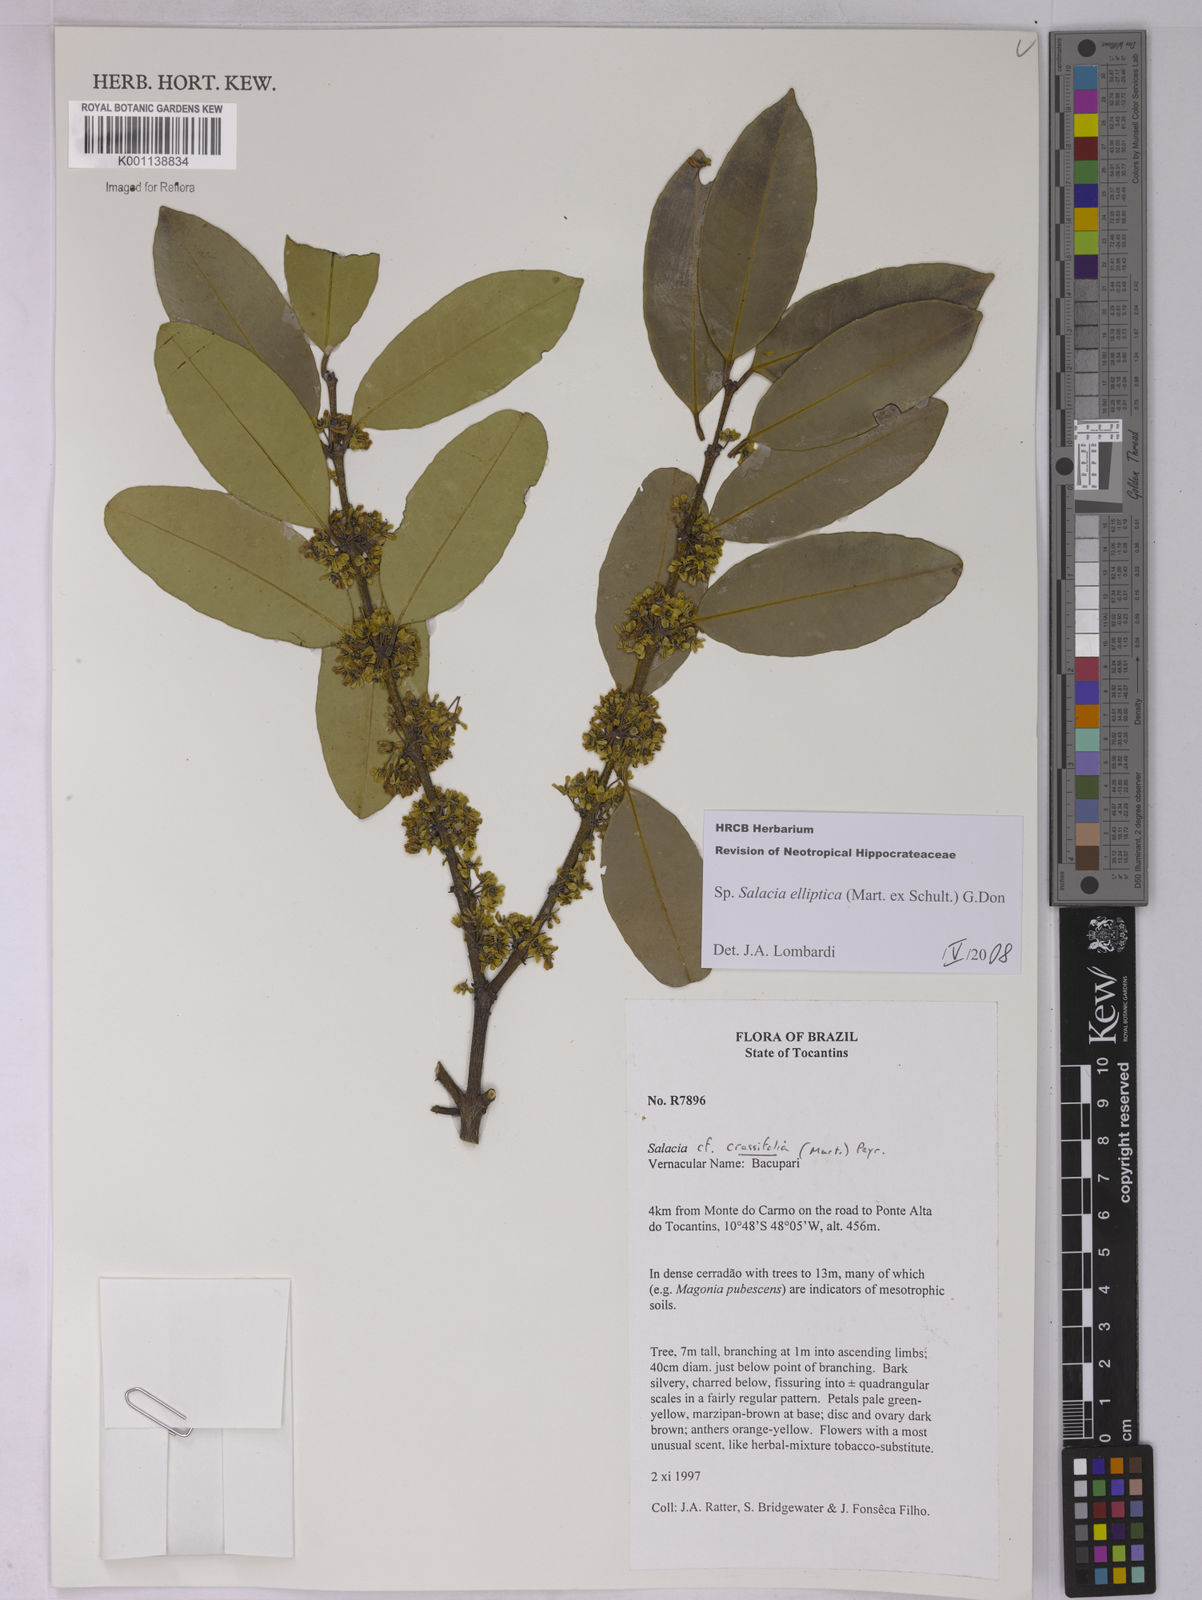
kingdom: Plantae
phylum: Tracheophyta
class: Magnoliopsida
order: Celastrales
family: Celastraceae
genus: Salacia
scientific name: Salacia elliptica
